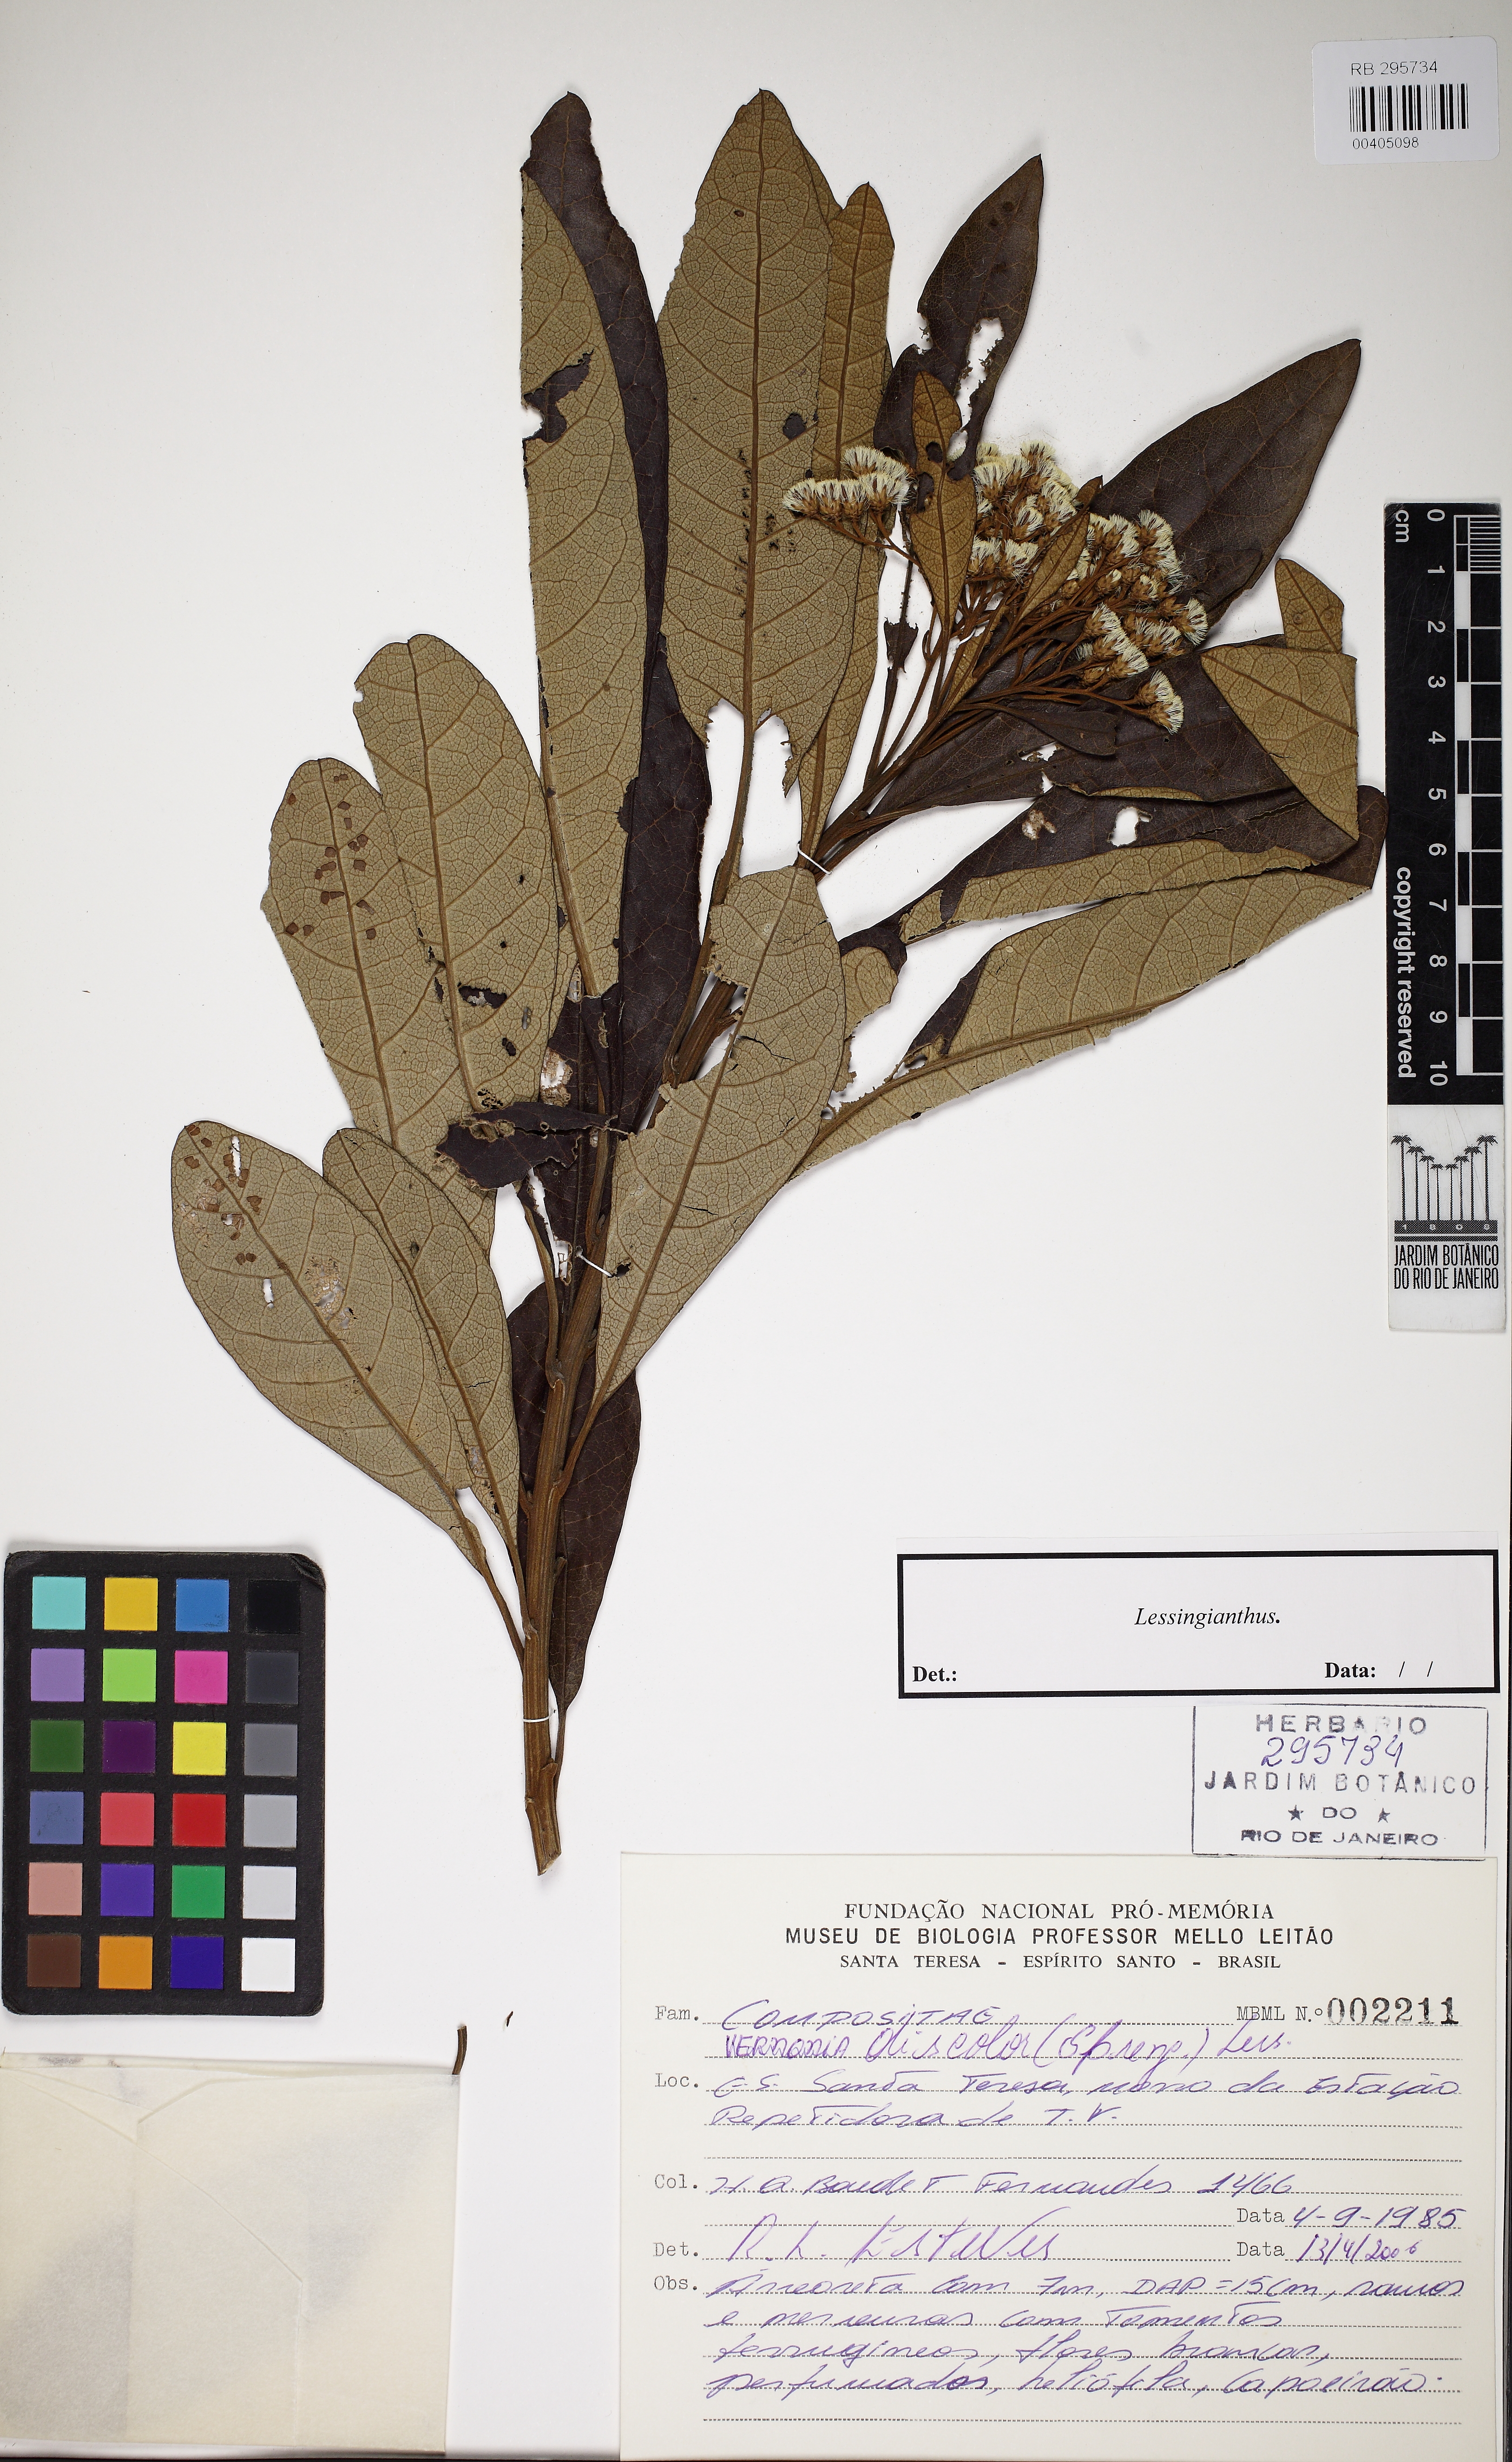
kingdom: Plantae
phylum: Tracheophyta
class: Magnoliopsida
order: Asterales
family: Asteraceae
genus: Lessingianthus
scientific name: Lessingianthus
